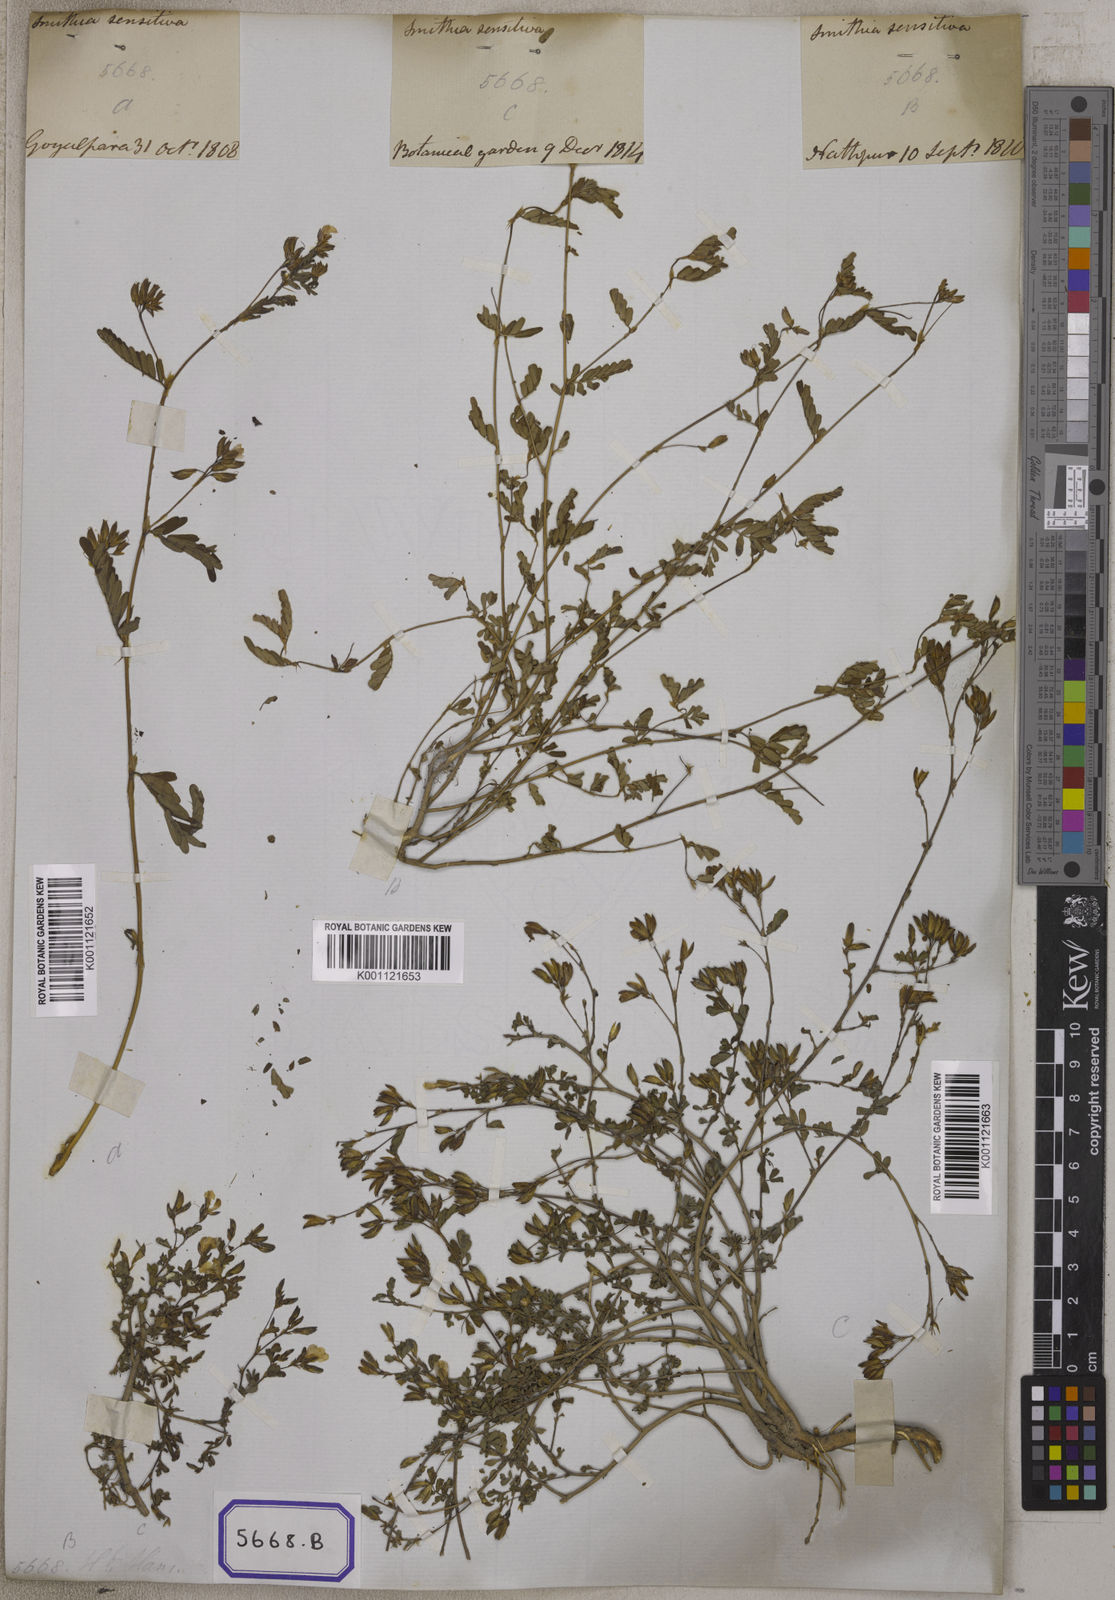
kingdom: Plantae
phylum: Tracheophyta
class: Magnoliopsida
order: Fabales
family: Fabaceae
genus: Smithia
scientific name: Smithia sensitiva
